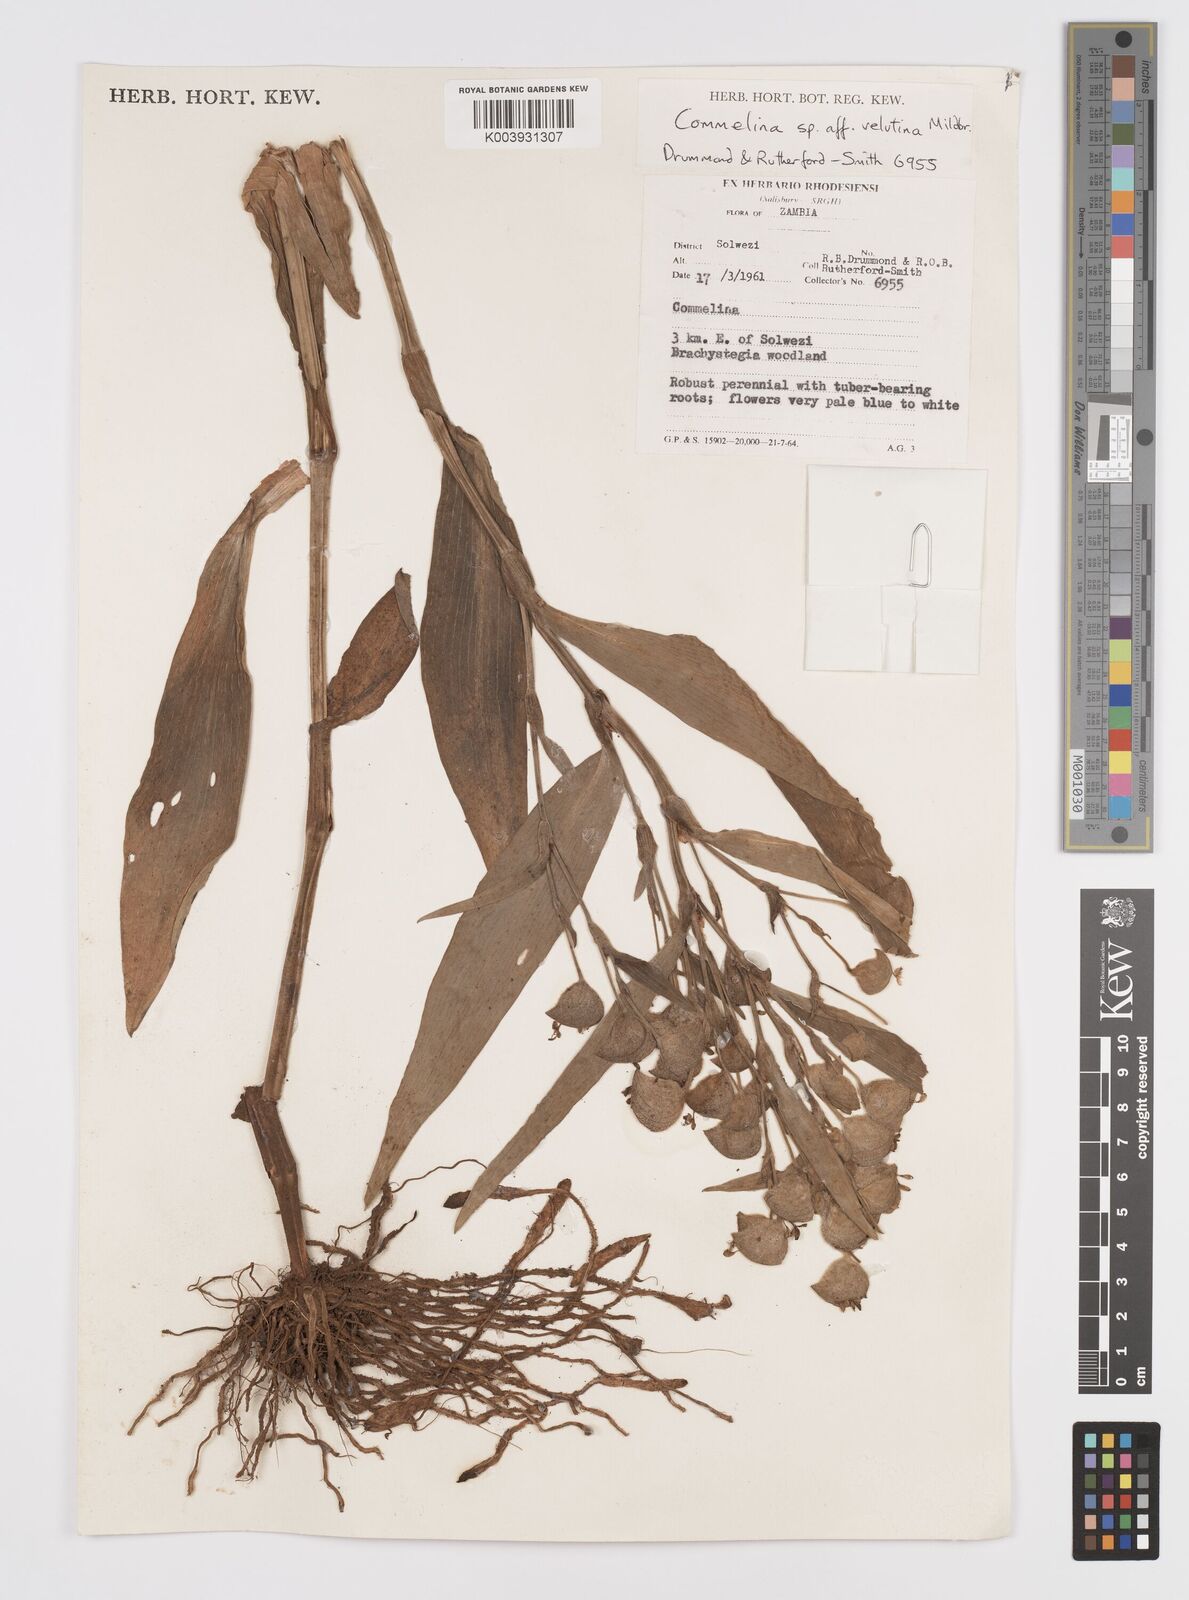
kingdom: Plantae
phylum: Tracheophyta
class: Liliopsida
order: Commelinales
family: Commelinaceae
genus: Commelina
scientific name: Commelina velutina
